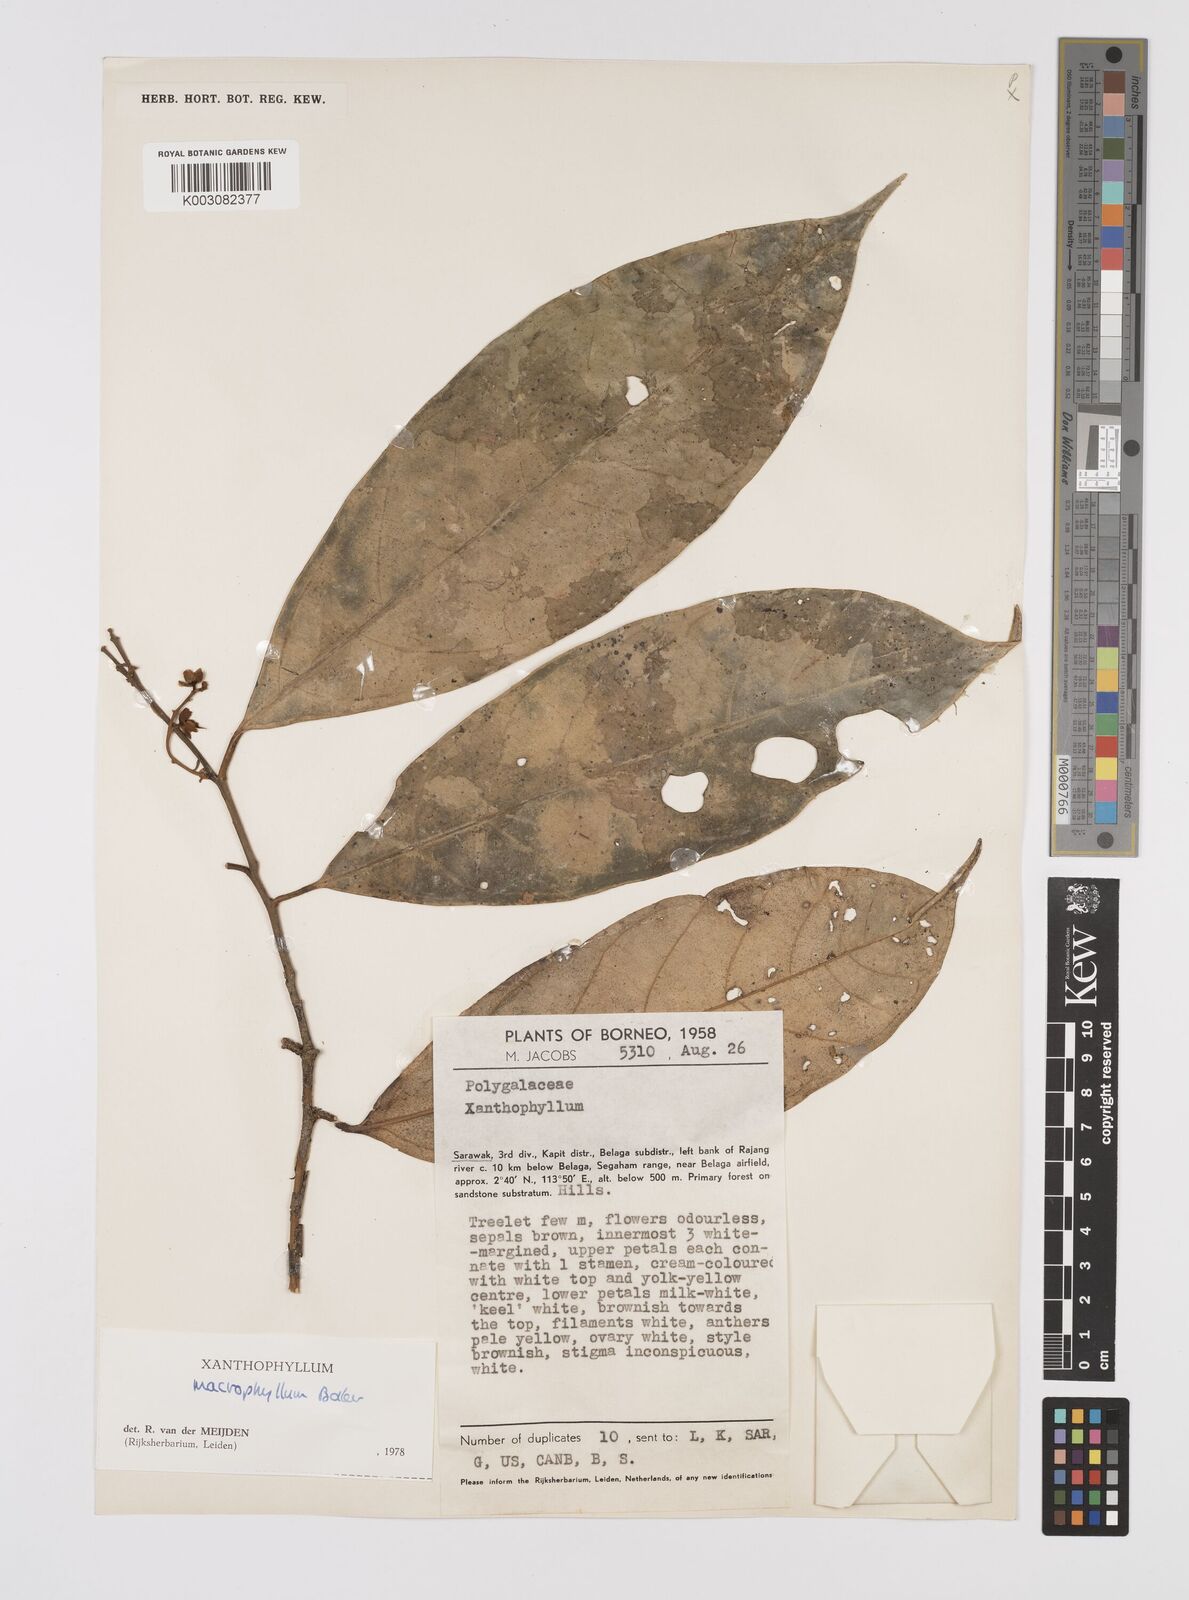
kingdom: Plantae
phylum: Tracheophyta
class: Magnoliopsida
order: Fabales
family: Polygalaceae
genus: Xanthophyllum
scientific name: Xanthophyllum macrophyllum
